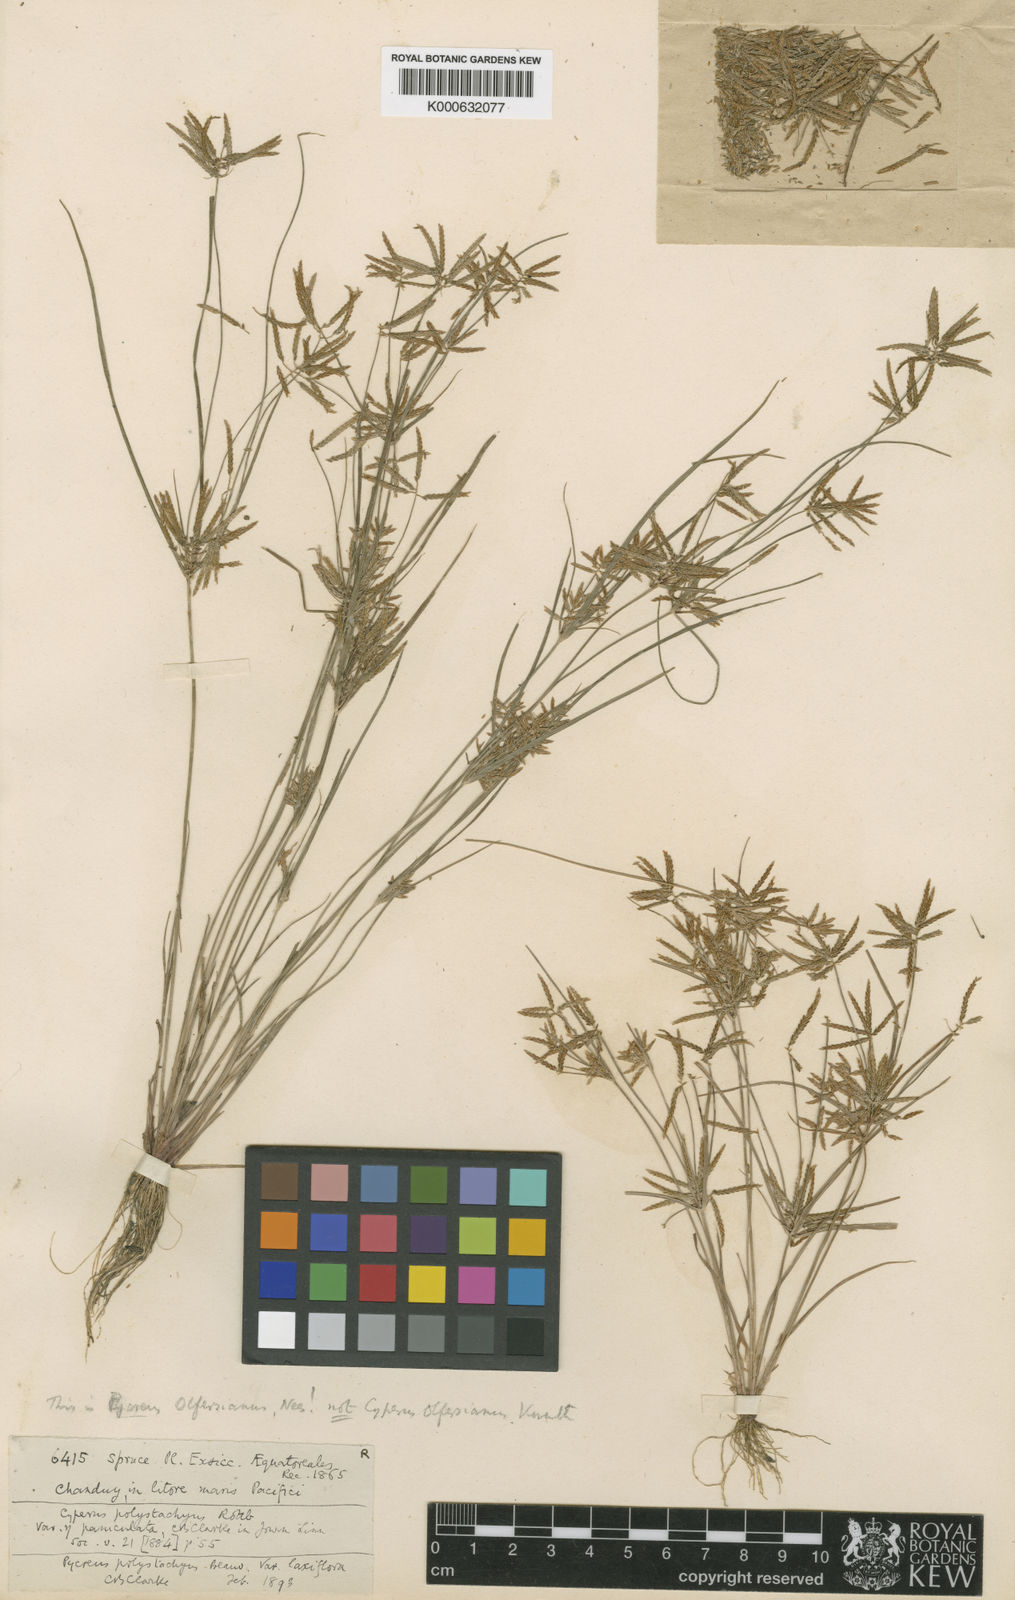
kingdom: Plantae
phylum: Tracheophyta
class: Liliopsida
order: Poales
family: Cyperaceae
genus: Cyperus
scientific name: Cyperus polystachyos
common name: Bunchy flat sedge
